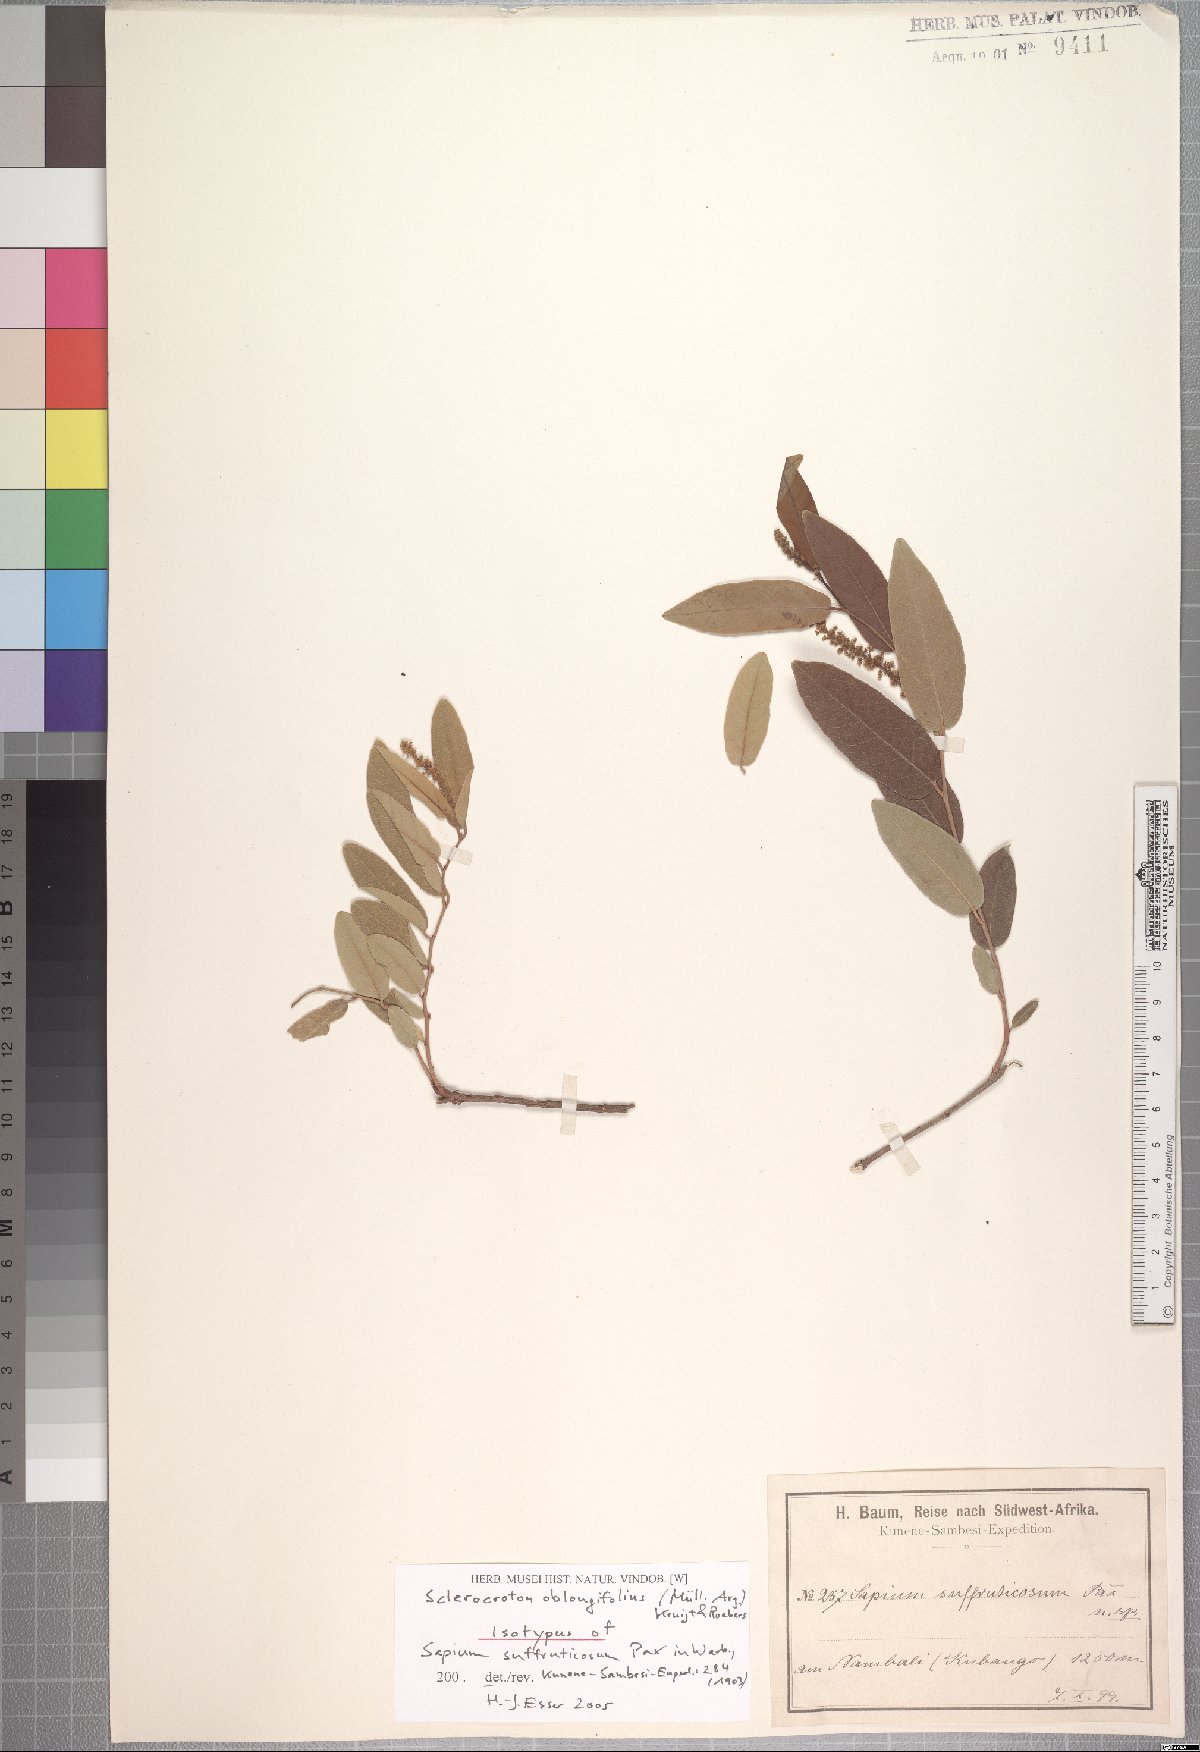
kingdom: Plantae
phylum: Tracheophyta
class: Magnoliopsida
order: Malpighiales
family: Euphorbiaceae
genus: Sclerocroton
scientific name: Sclerocroton oblongifolius
